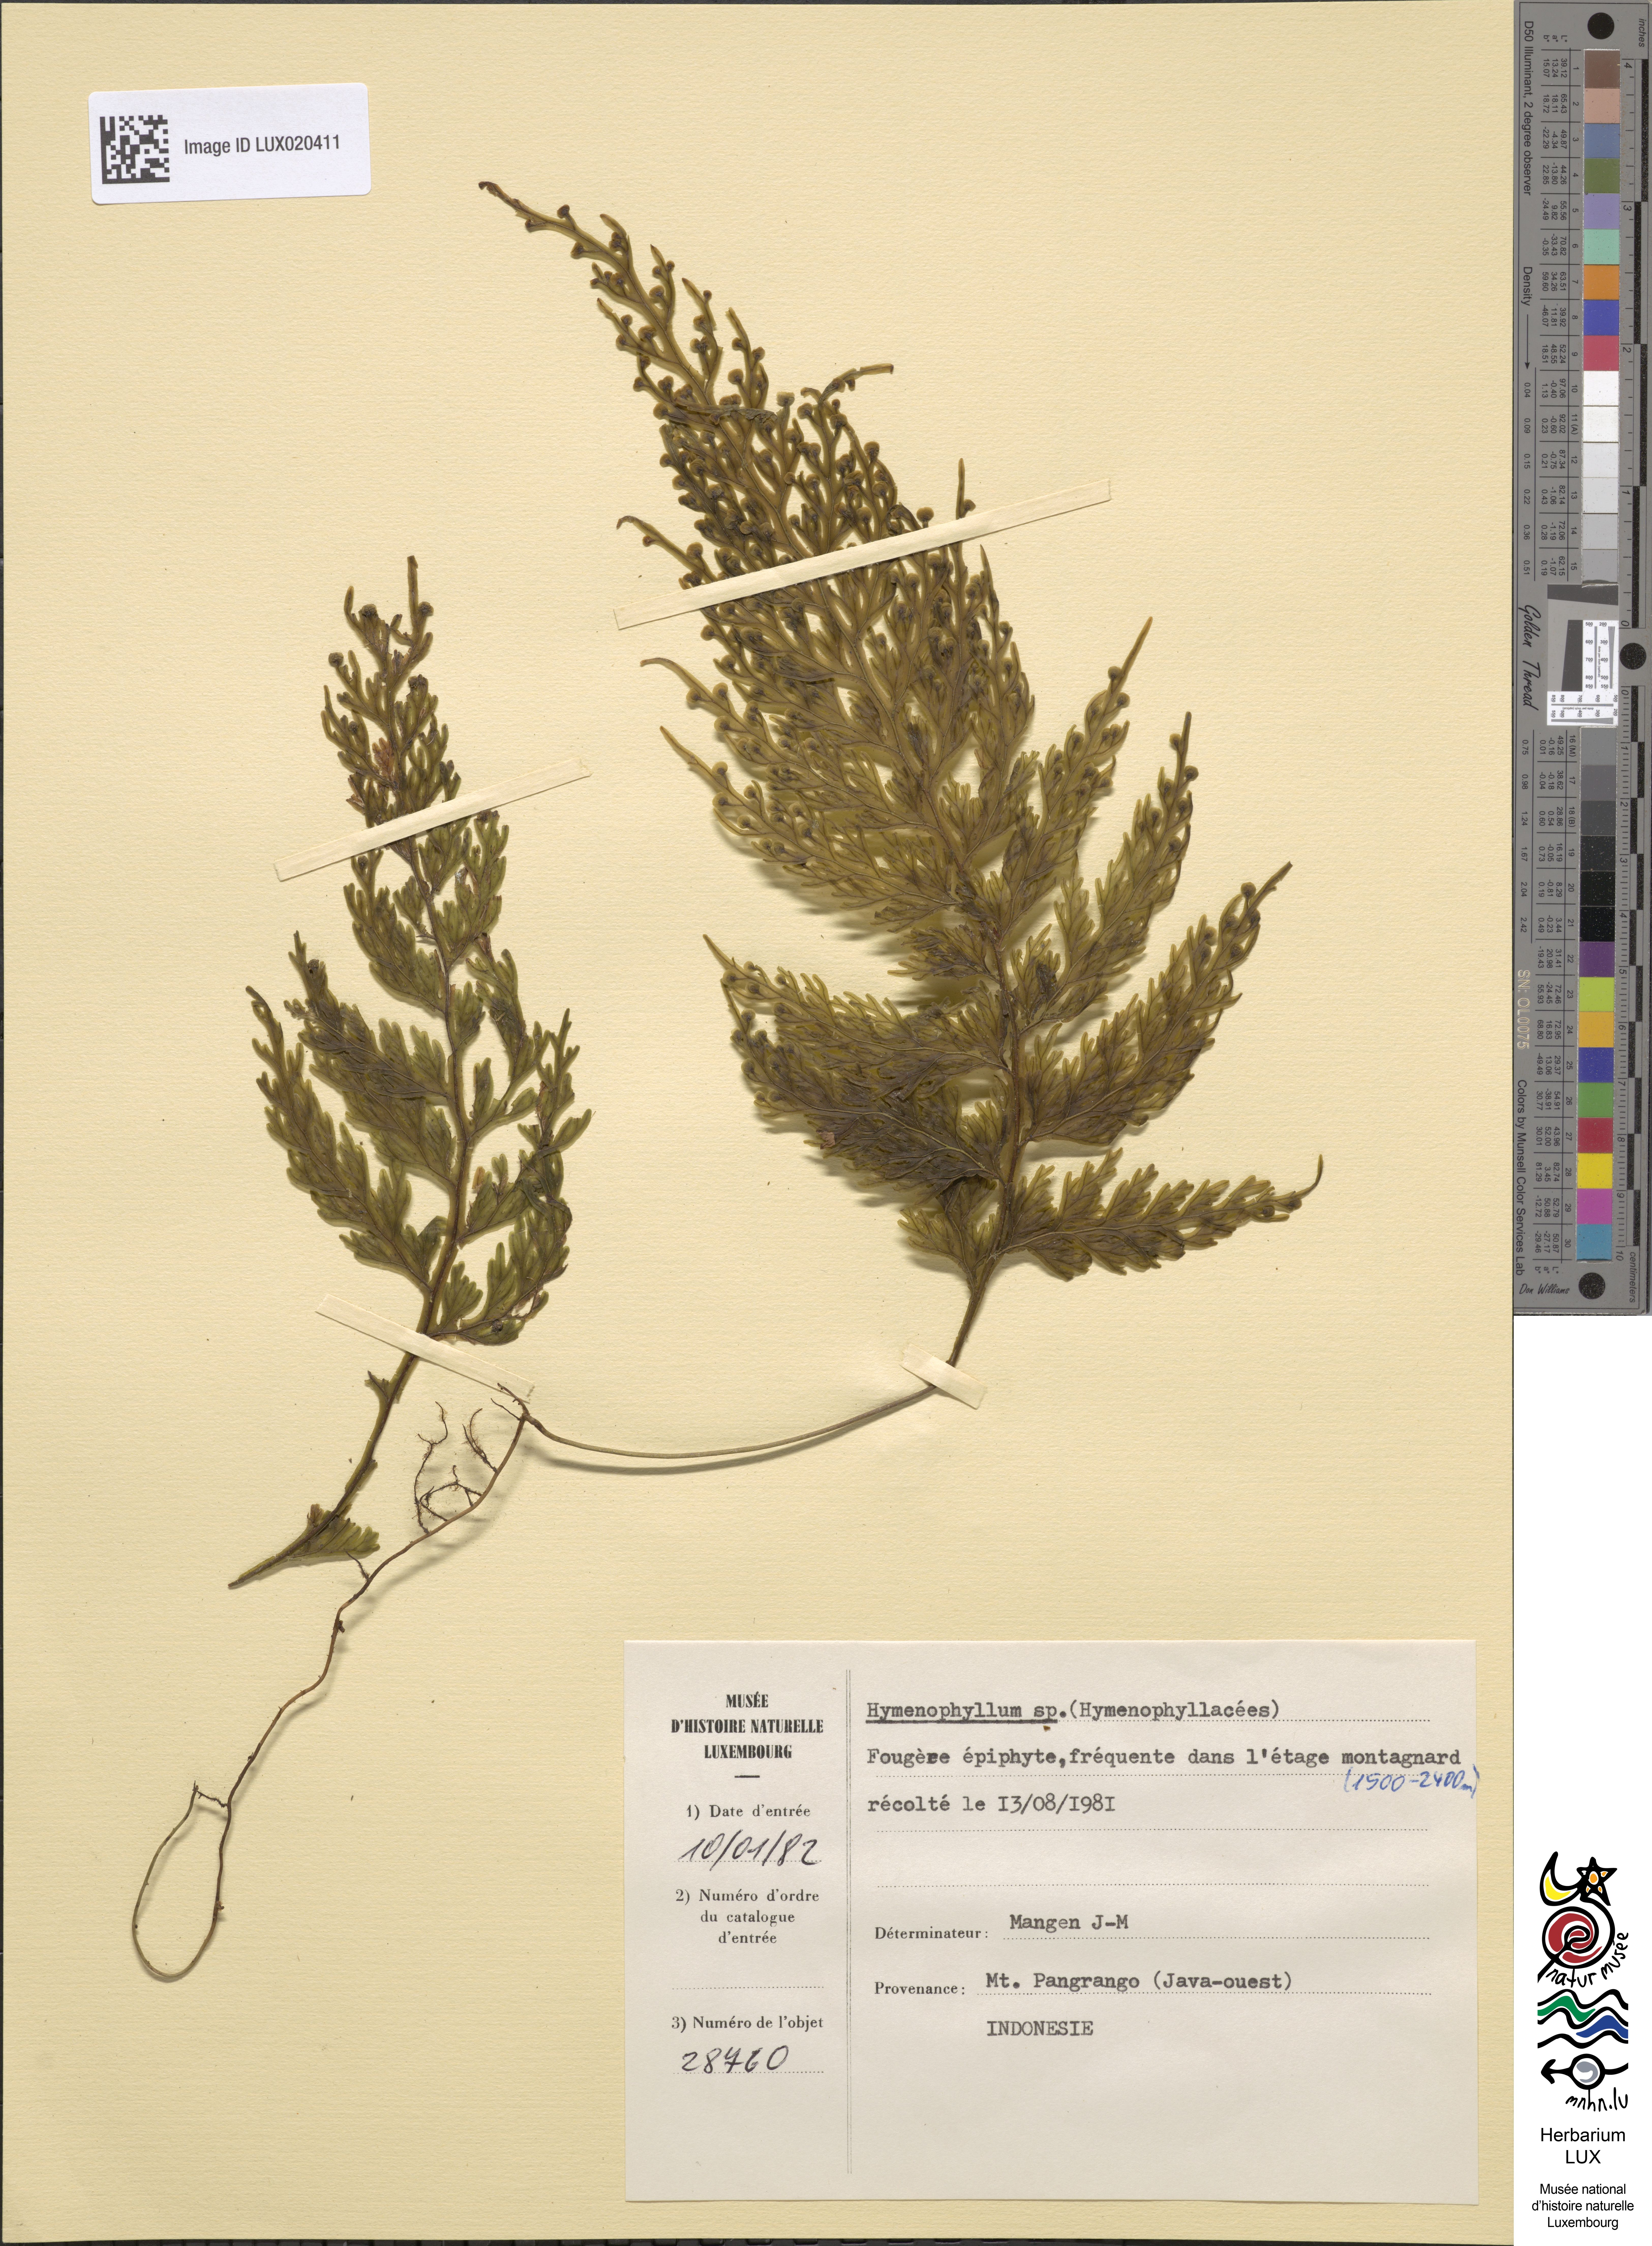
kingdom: Plantae
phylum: Tracheophyta
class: Polypodiopsida
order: Hymenophyllales
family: Hymenophyllaceae
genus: Hymenophyllum
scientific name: Hymenophyllum
